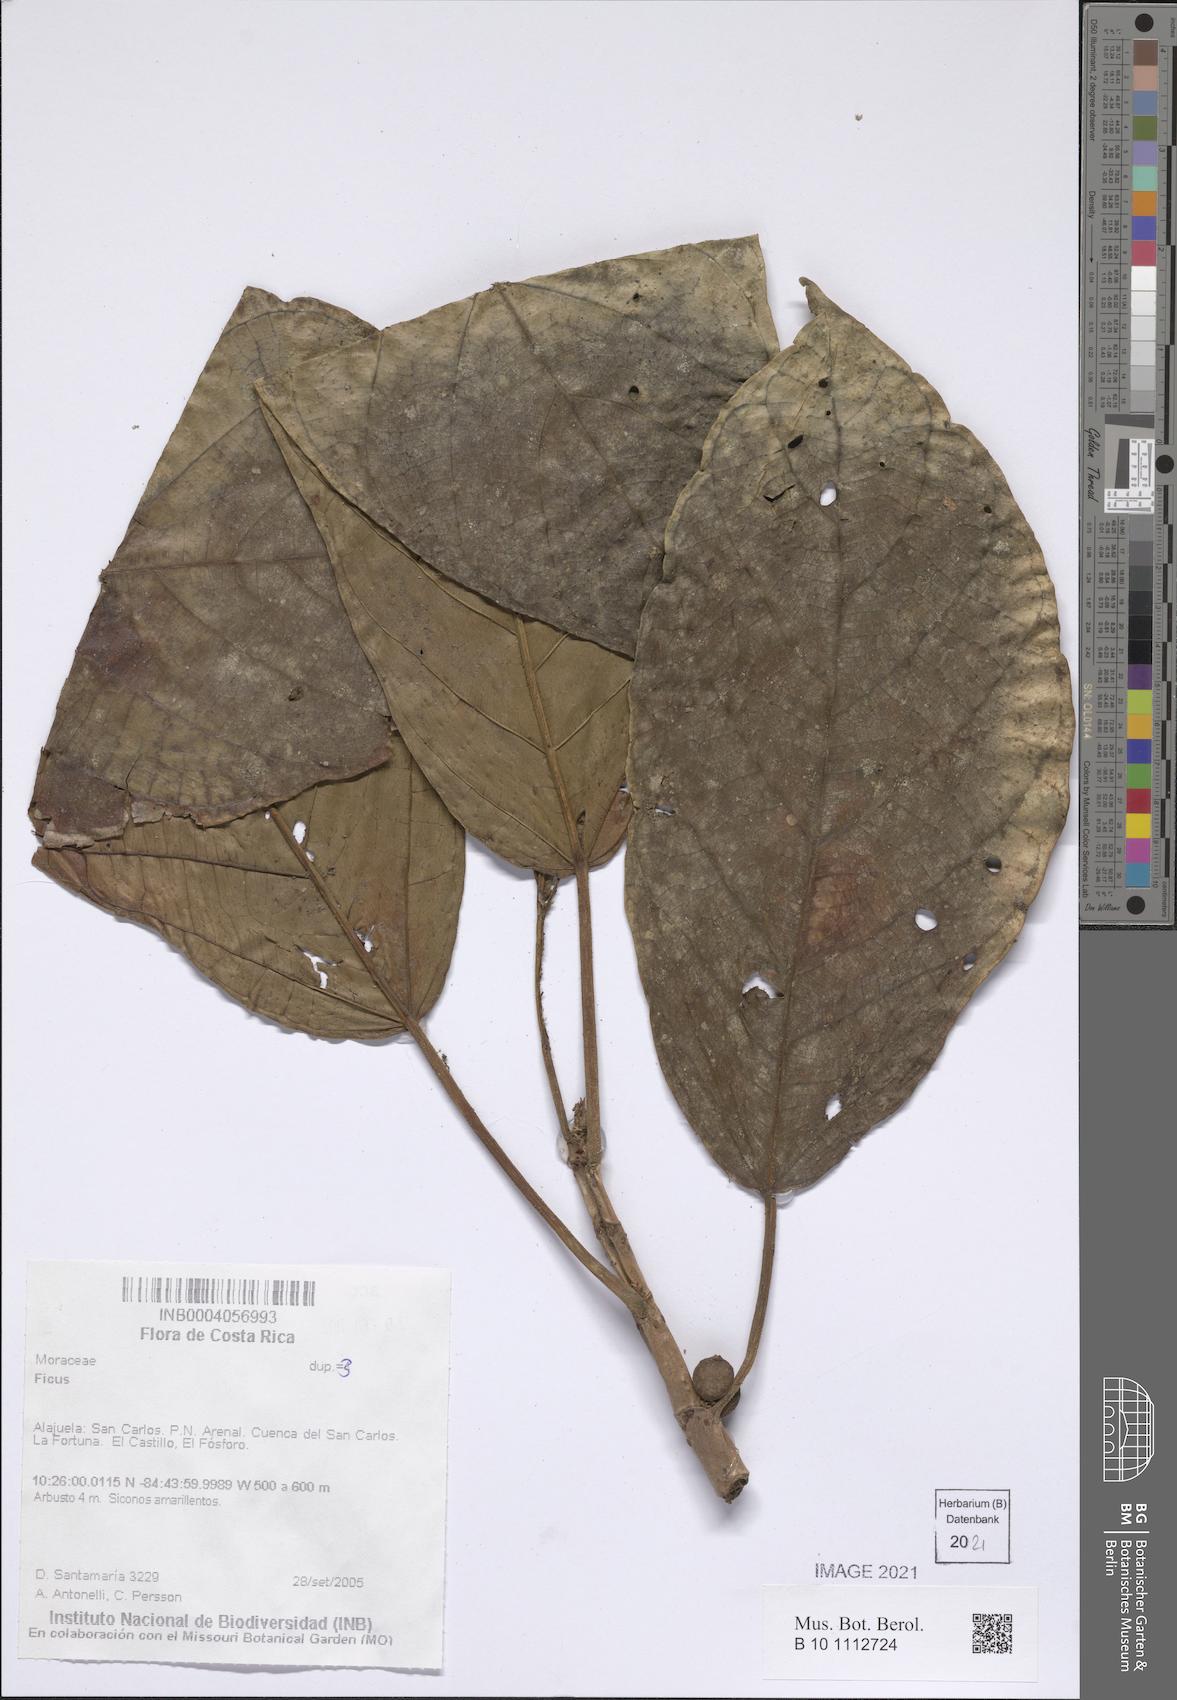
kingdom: Plantae
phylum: Tracheophyta
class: Magnoliopsida
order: Rosales
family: Moraceae
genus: Ficus
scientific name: Ficus
